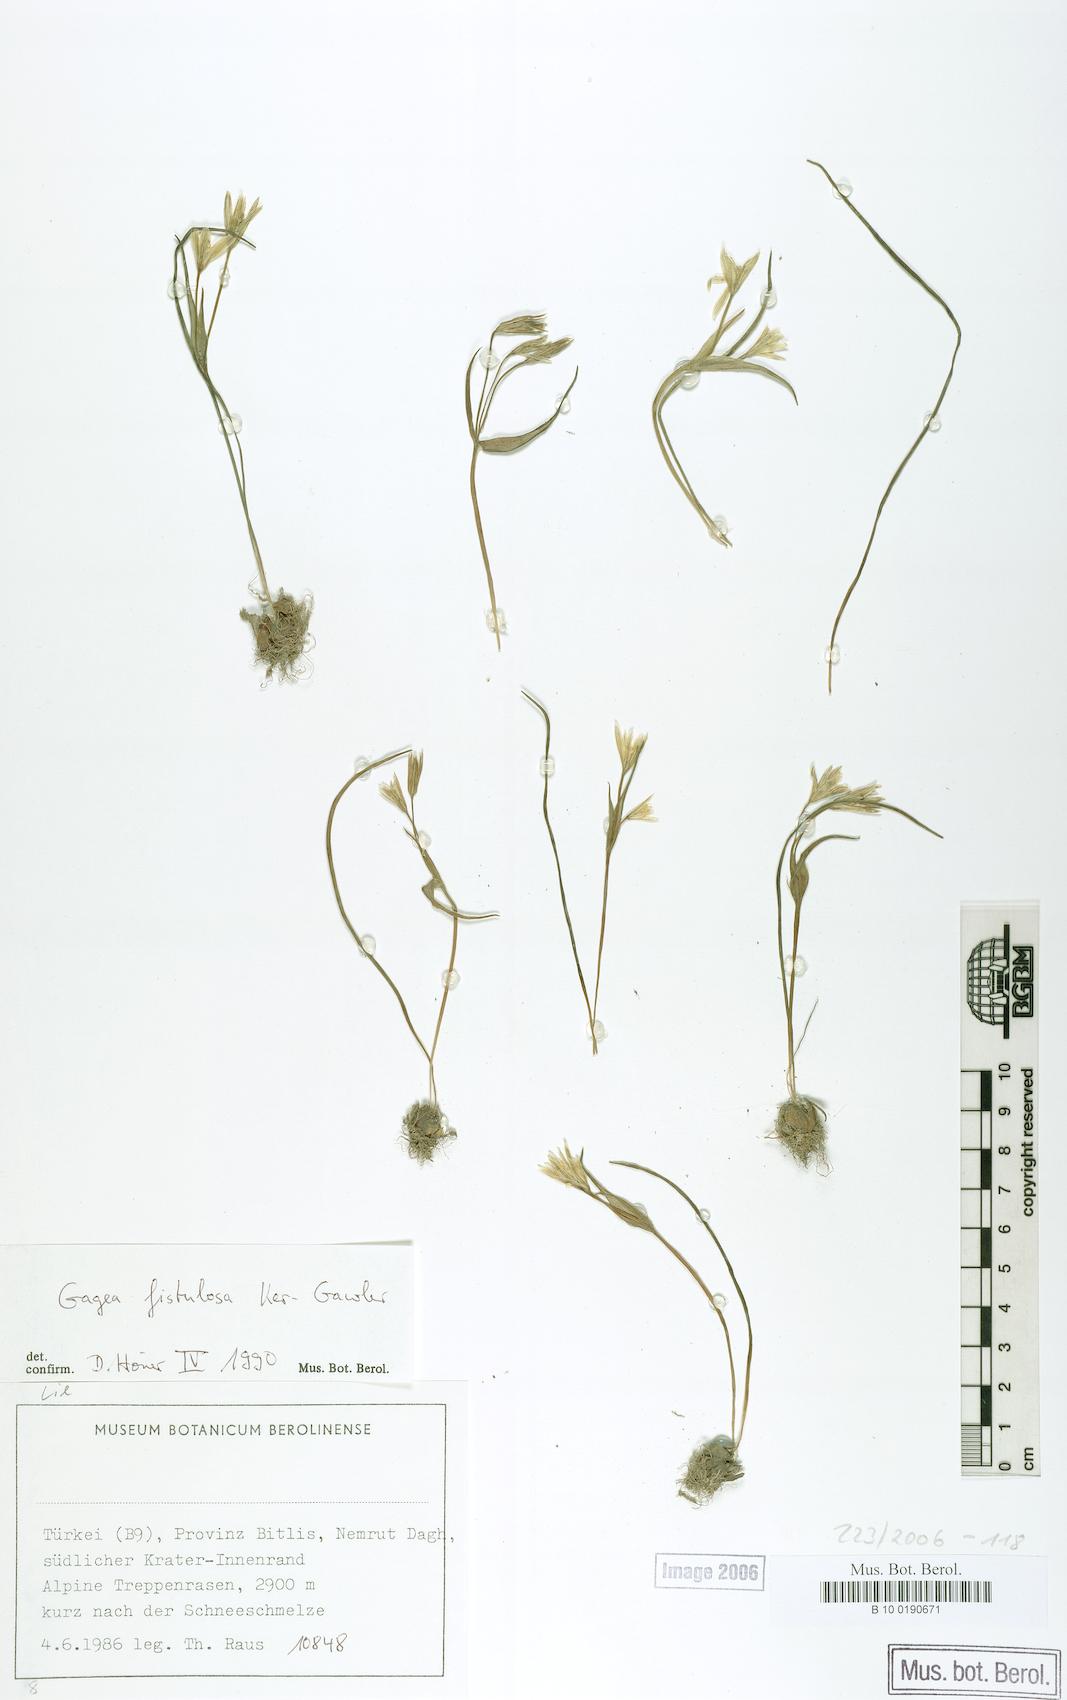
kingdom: Plantae
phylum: Tracheophyta
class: Liliopsida
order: Liliales
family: Liliaceae
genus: Gagea
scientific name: Gagea bohemica
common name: Early star-of-bethlehem
